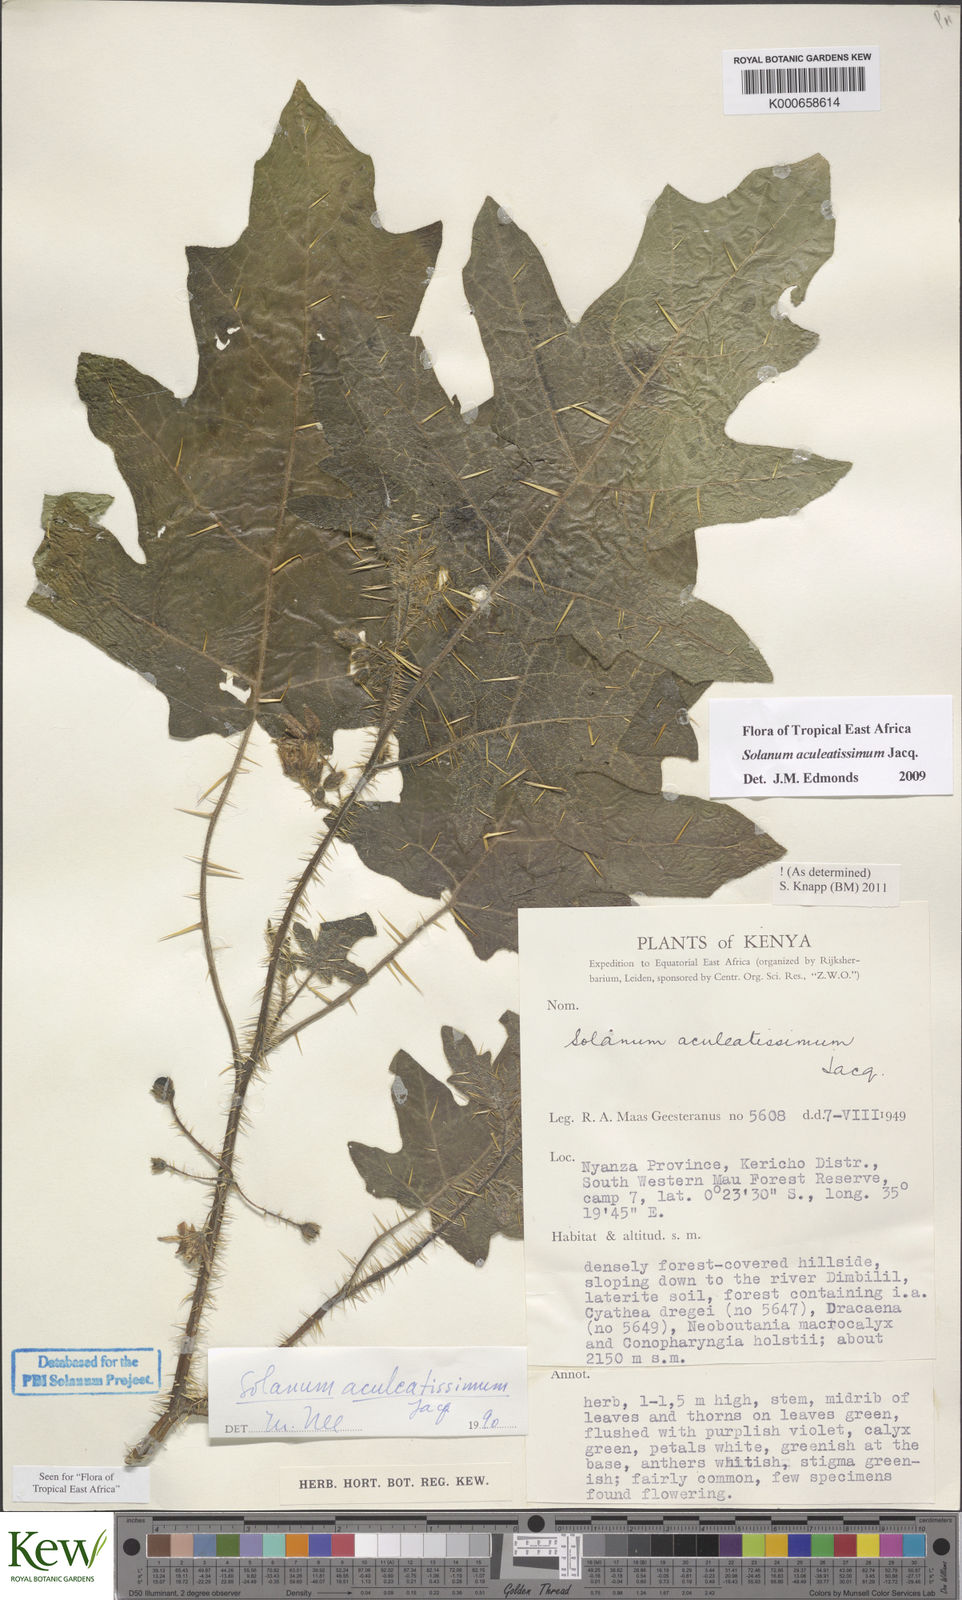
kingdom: Plantae
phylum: Tracheophyta
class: Magnoliopsida
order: Solanales
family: Solanaceae
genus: Solanum
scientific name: Solanum aculeatissimum
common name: Dutch eggplant
